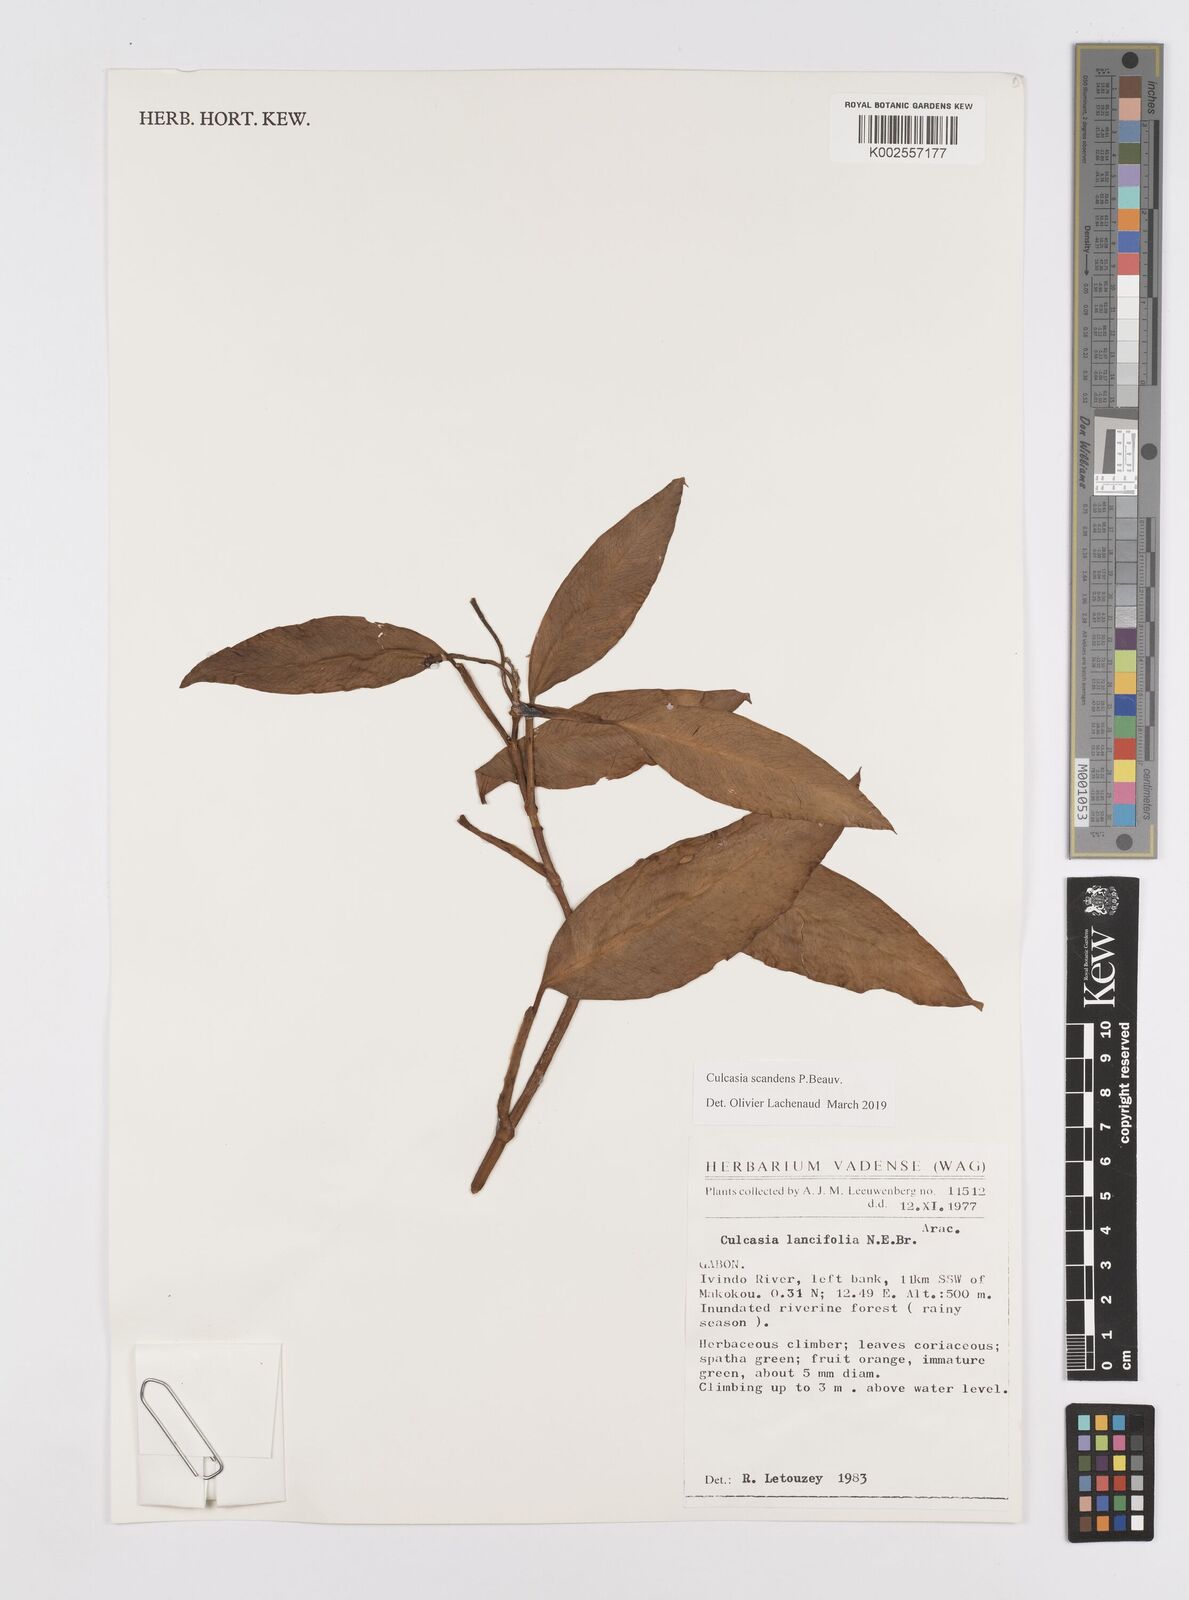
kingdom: Plantae
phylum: Tracheophyta
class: Liliopsida
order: Alismatales
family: Araceae
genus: Culcasia
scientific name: Culcasia scandens
